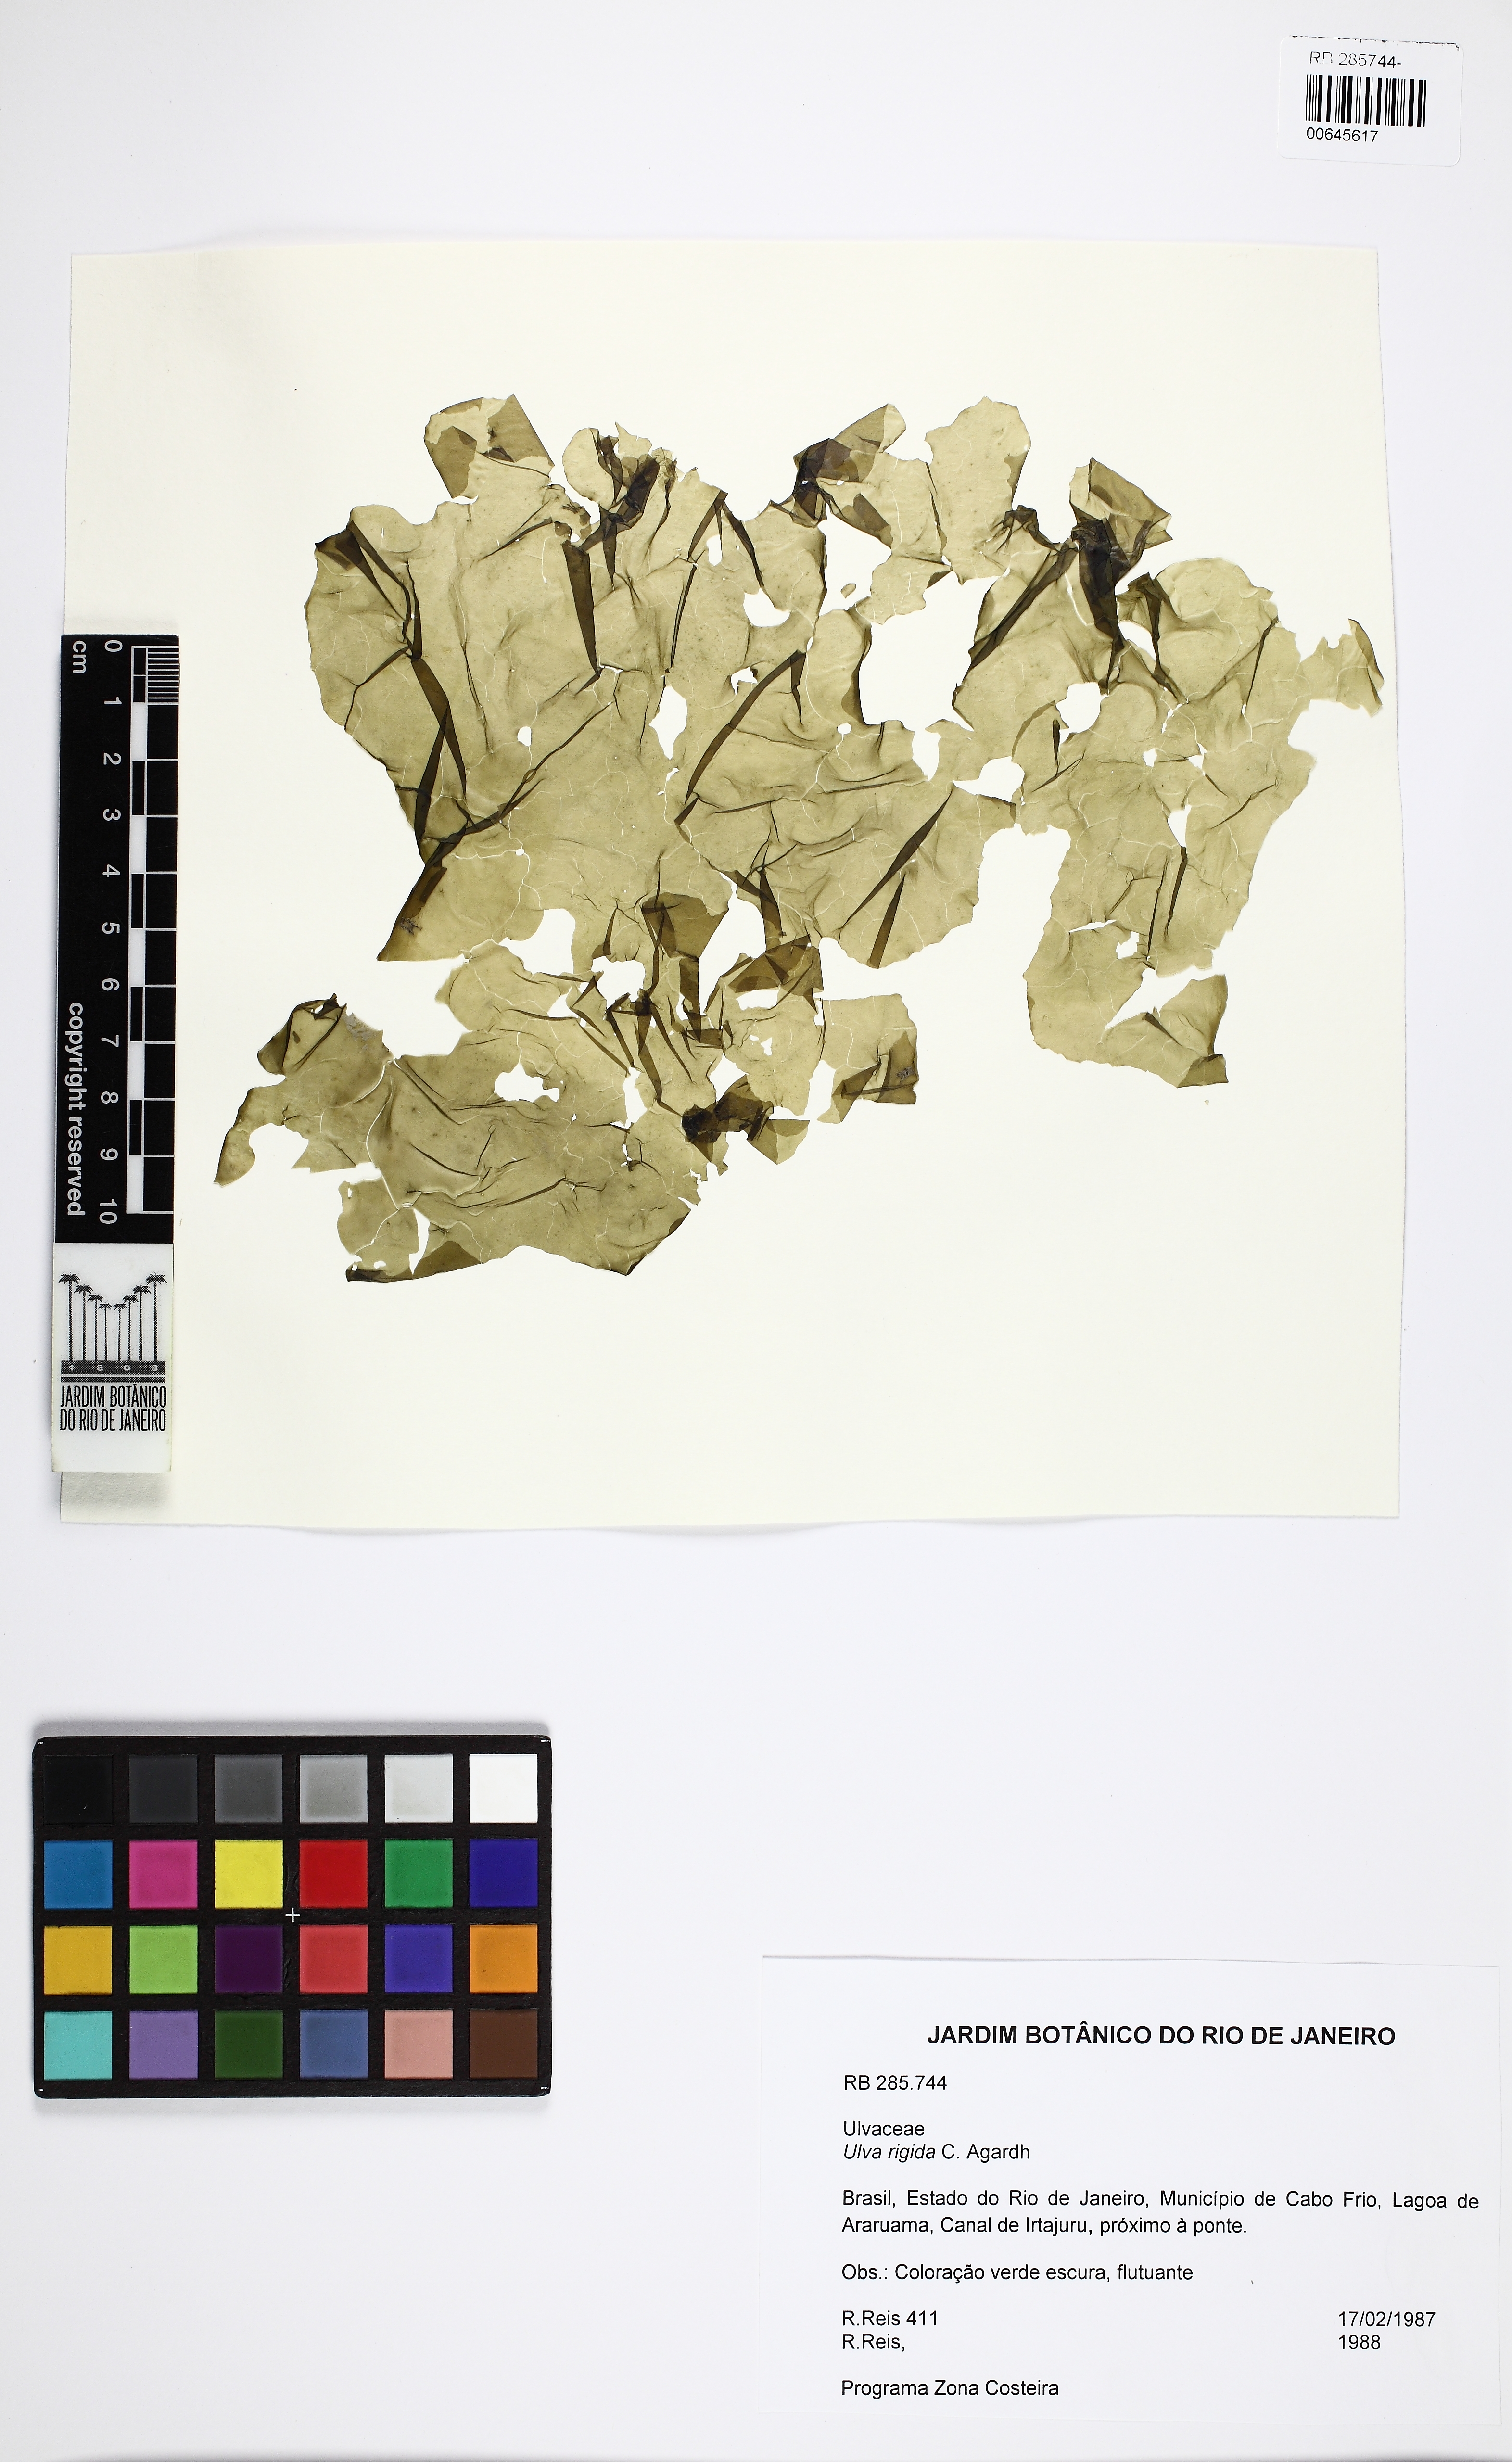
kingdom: Plantae
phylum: Chlorophyta
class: Ulvophyceae
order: Ulvales
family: Ulvaceae
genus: Ulva
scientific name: Ulva rigida
